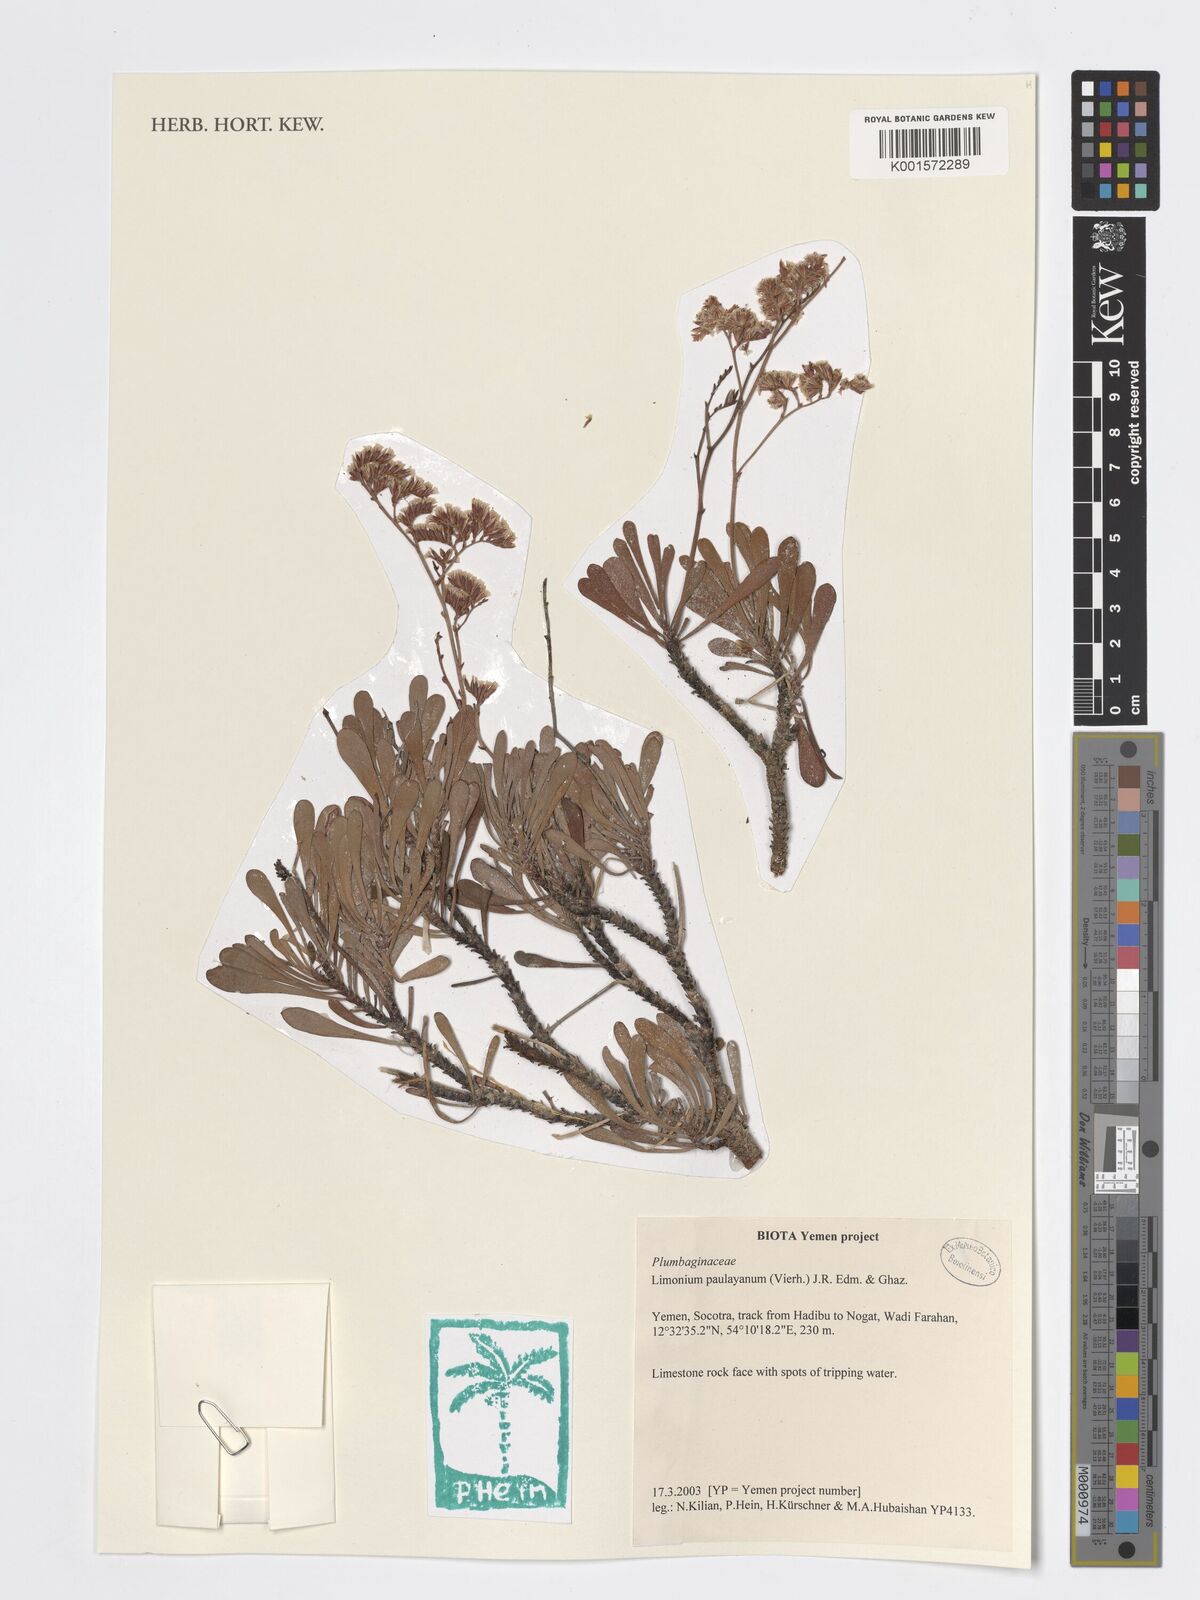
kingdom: Plantae
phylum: Tracheophyta
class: Magnoliopsida
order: Caryophyllales
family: Plumbaginaceae
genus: Limonium
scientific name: Limonium paulayanum
